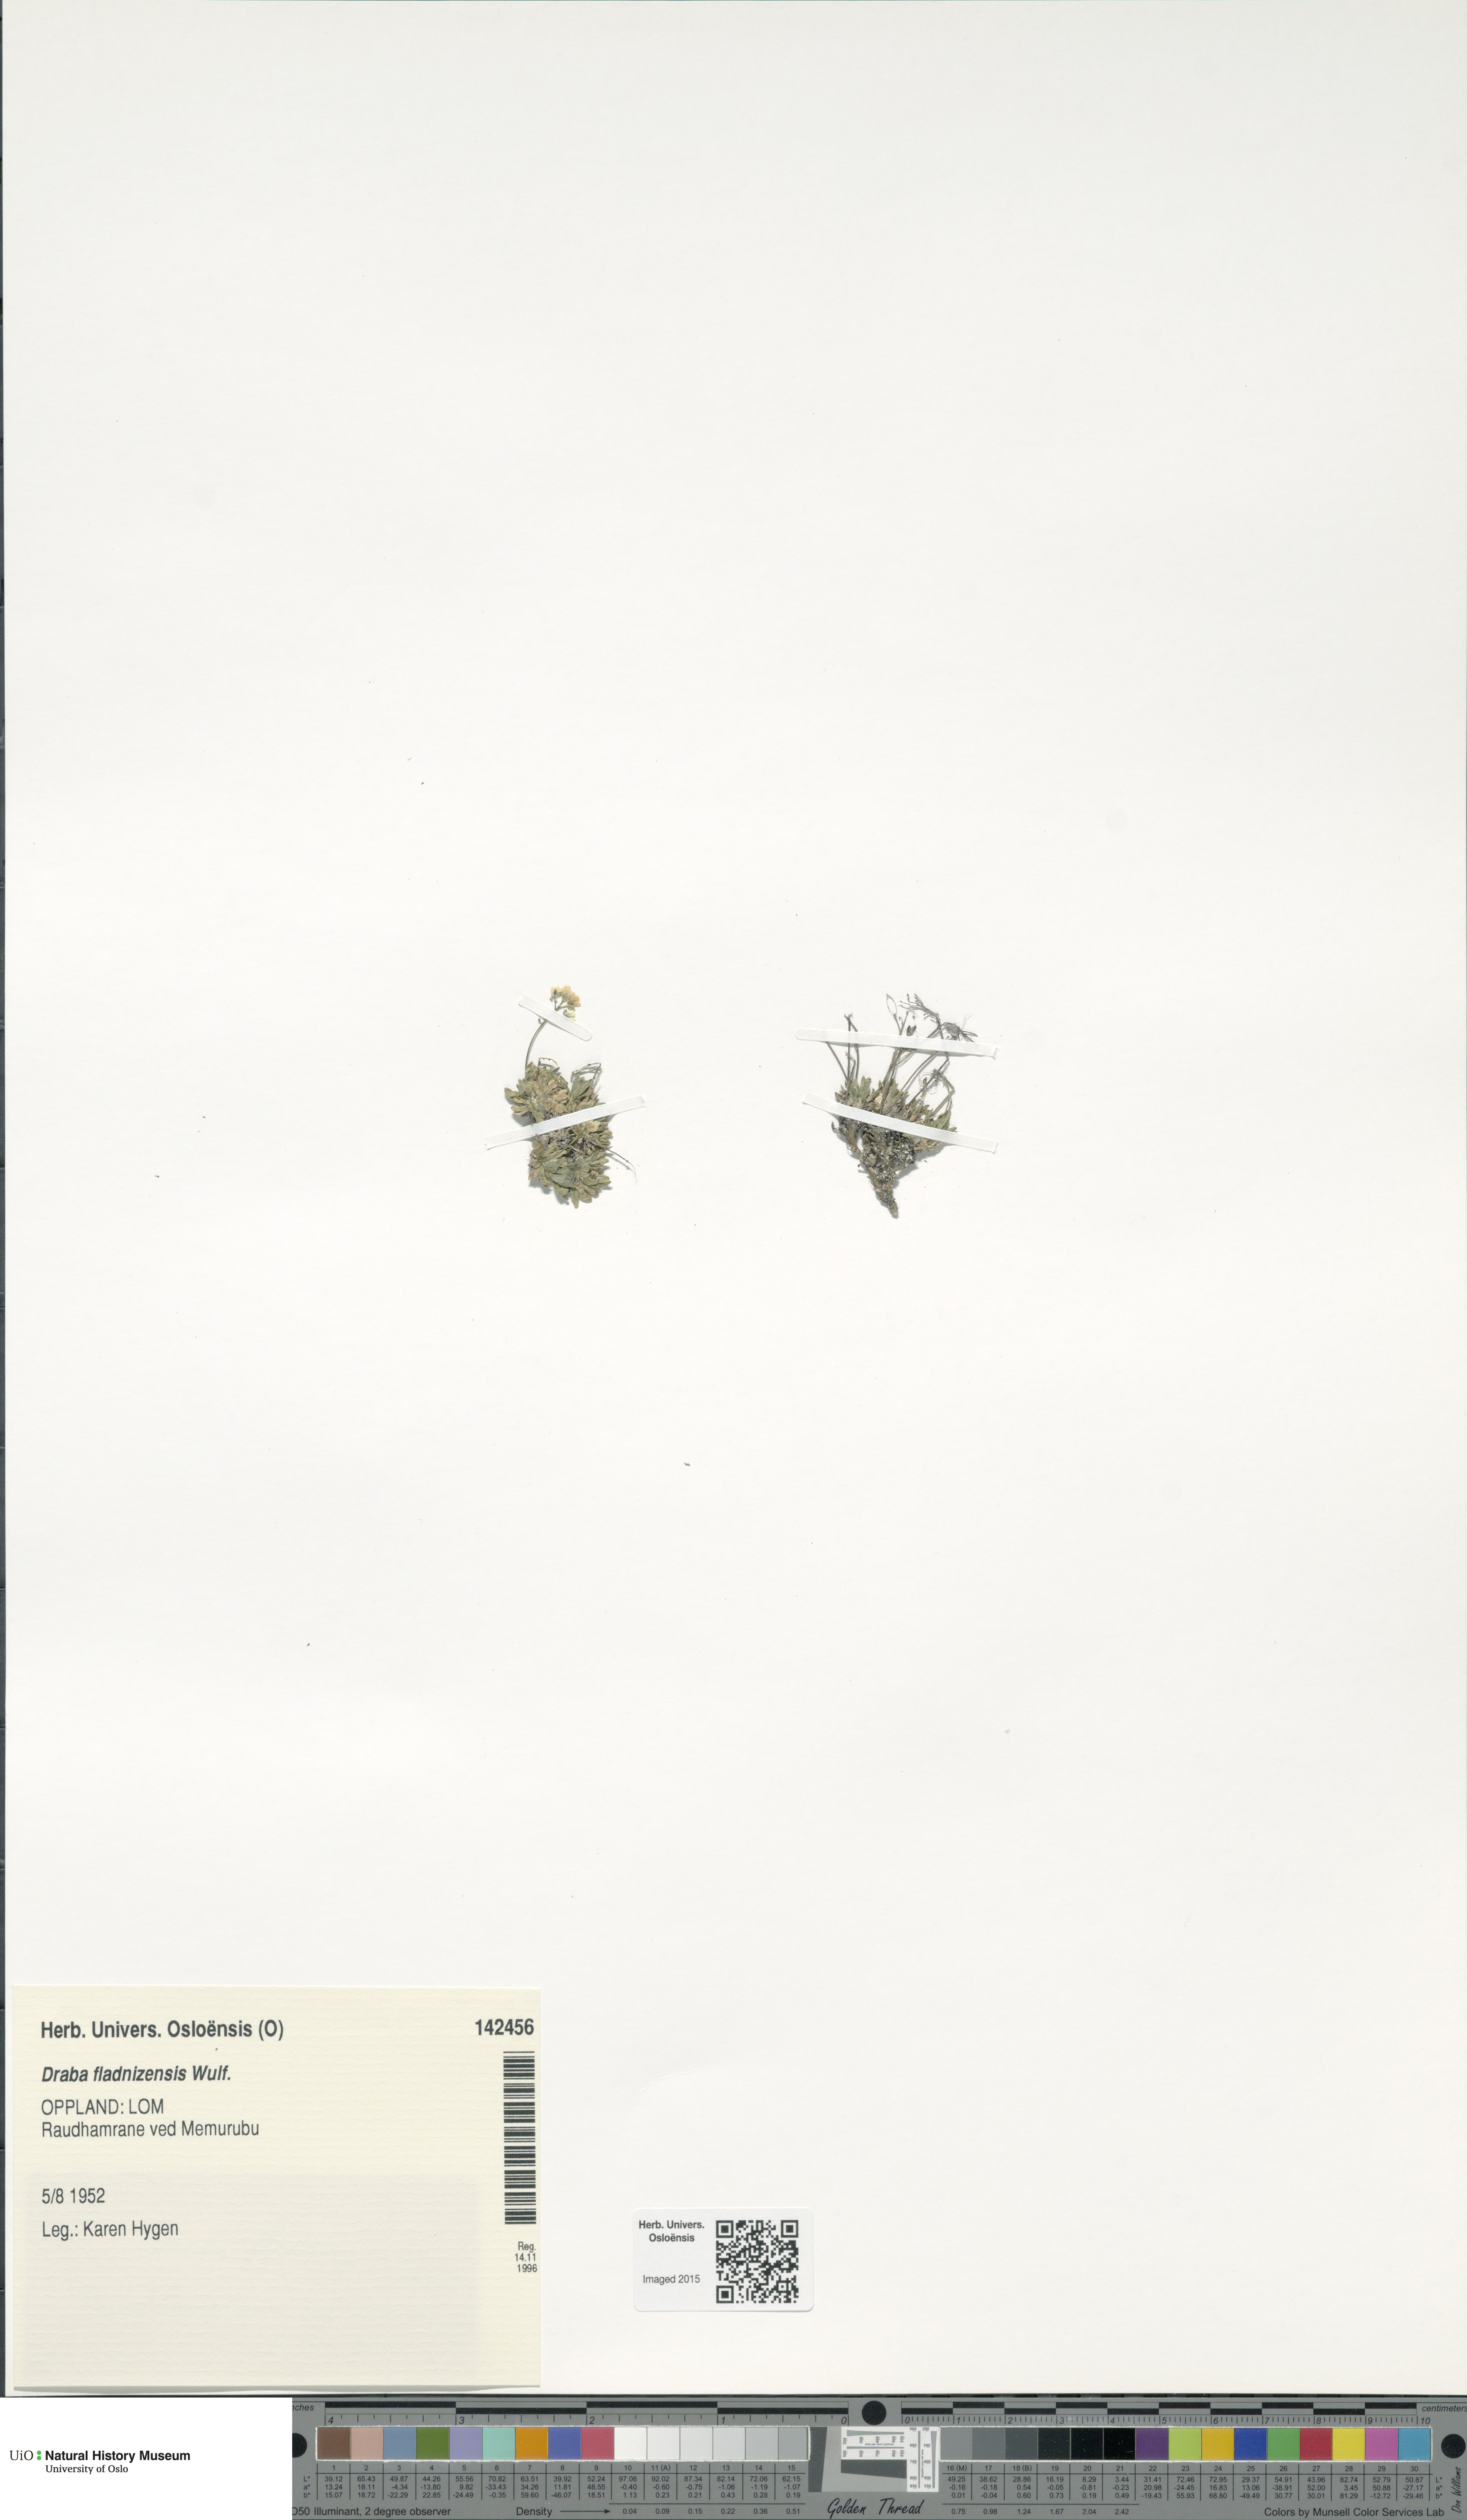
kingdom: Plantae
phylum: Tracheophyta
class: Magnoliopsida
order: Brassicales
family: Brassicaceae
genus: Draba
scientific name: Draba fladnizensis
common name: Austrian draba
